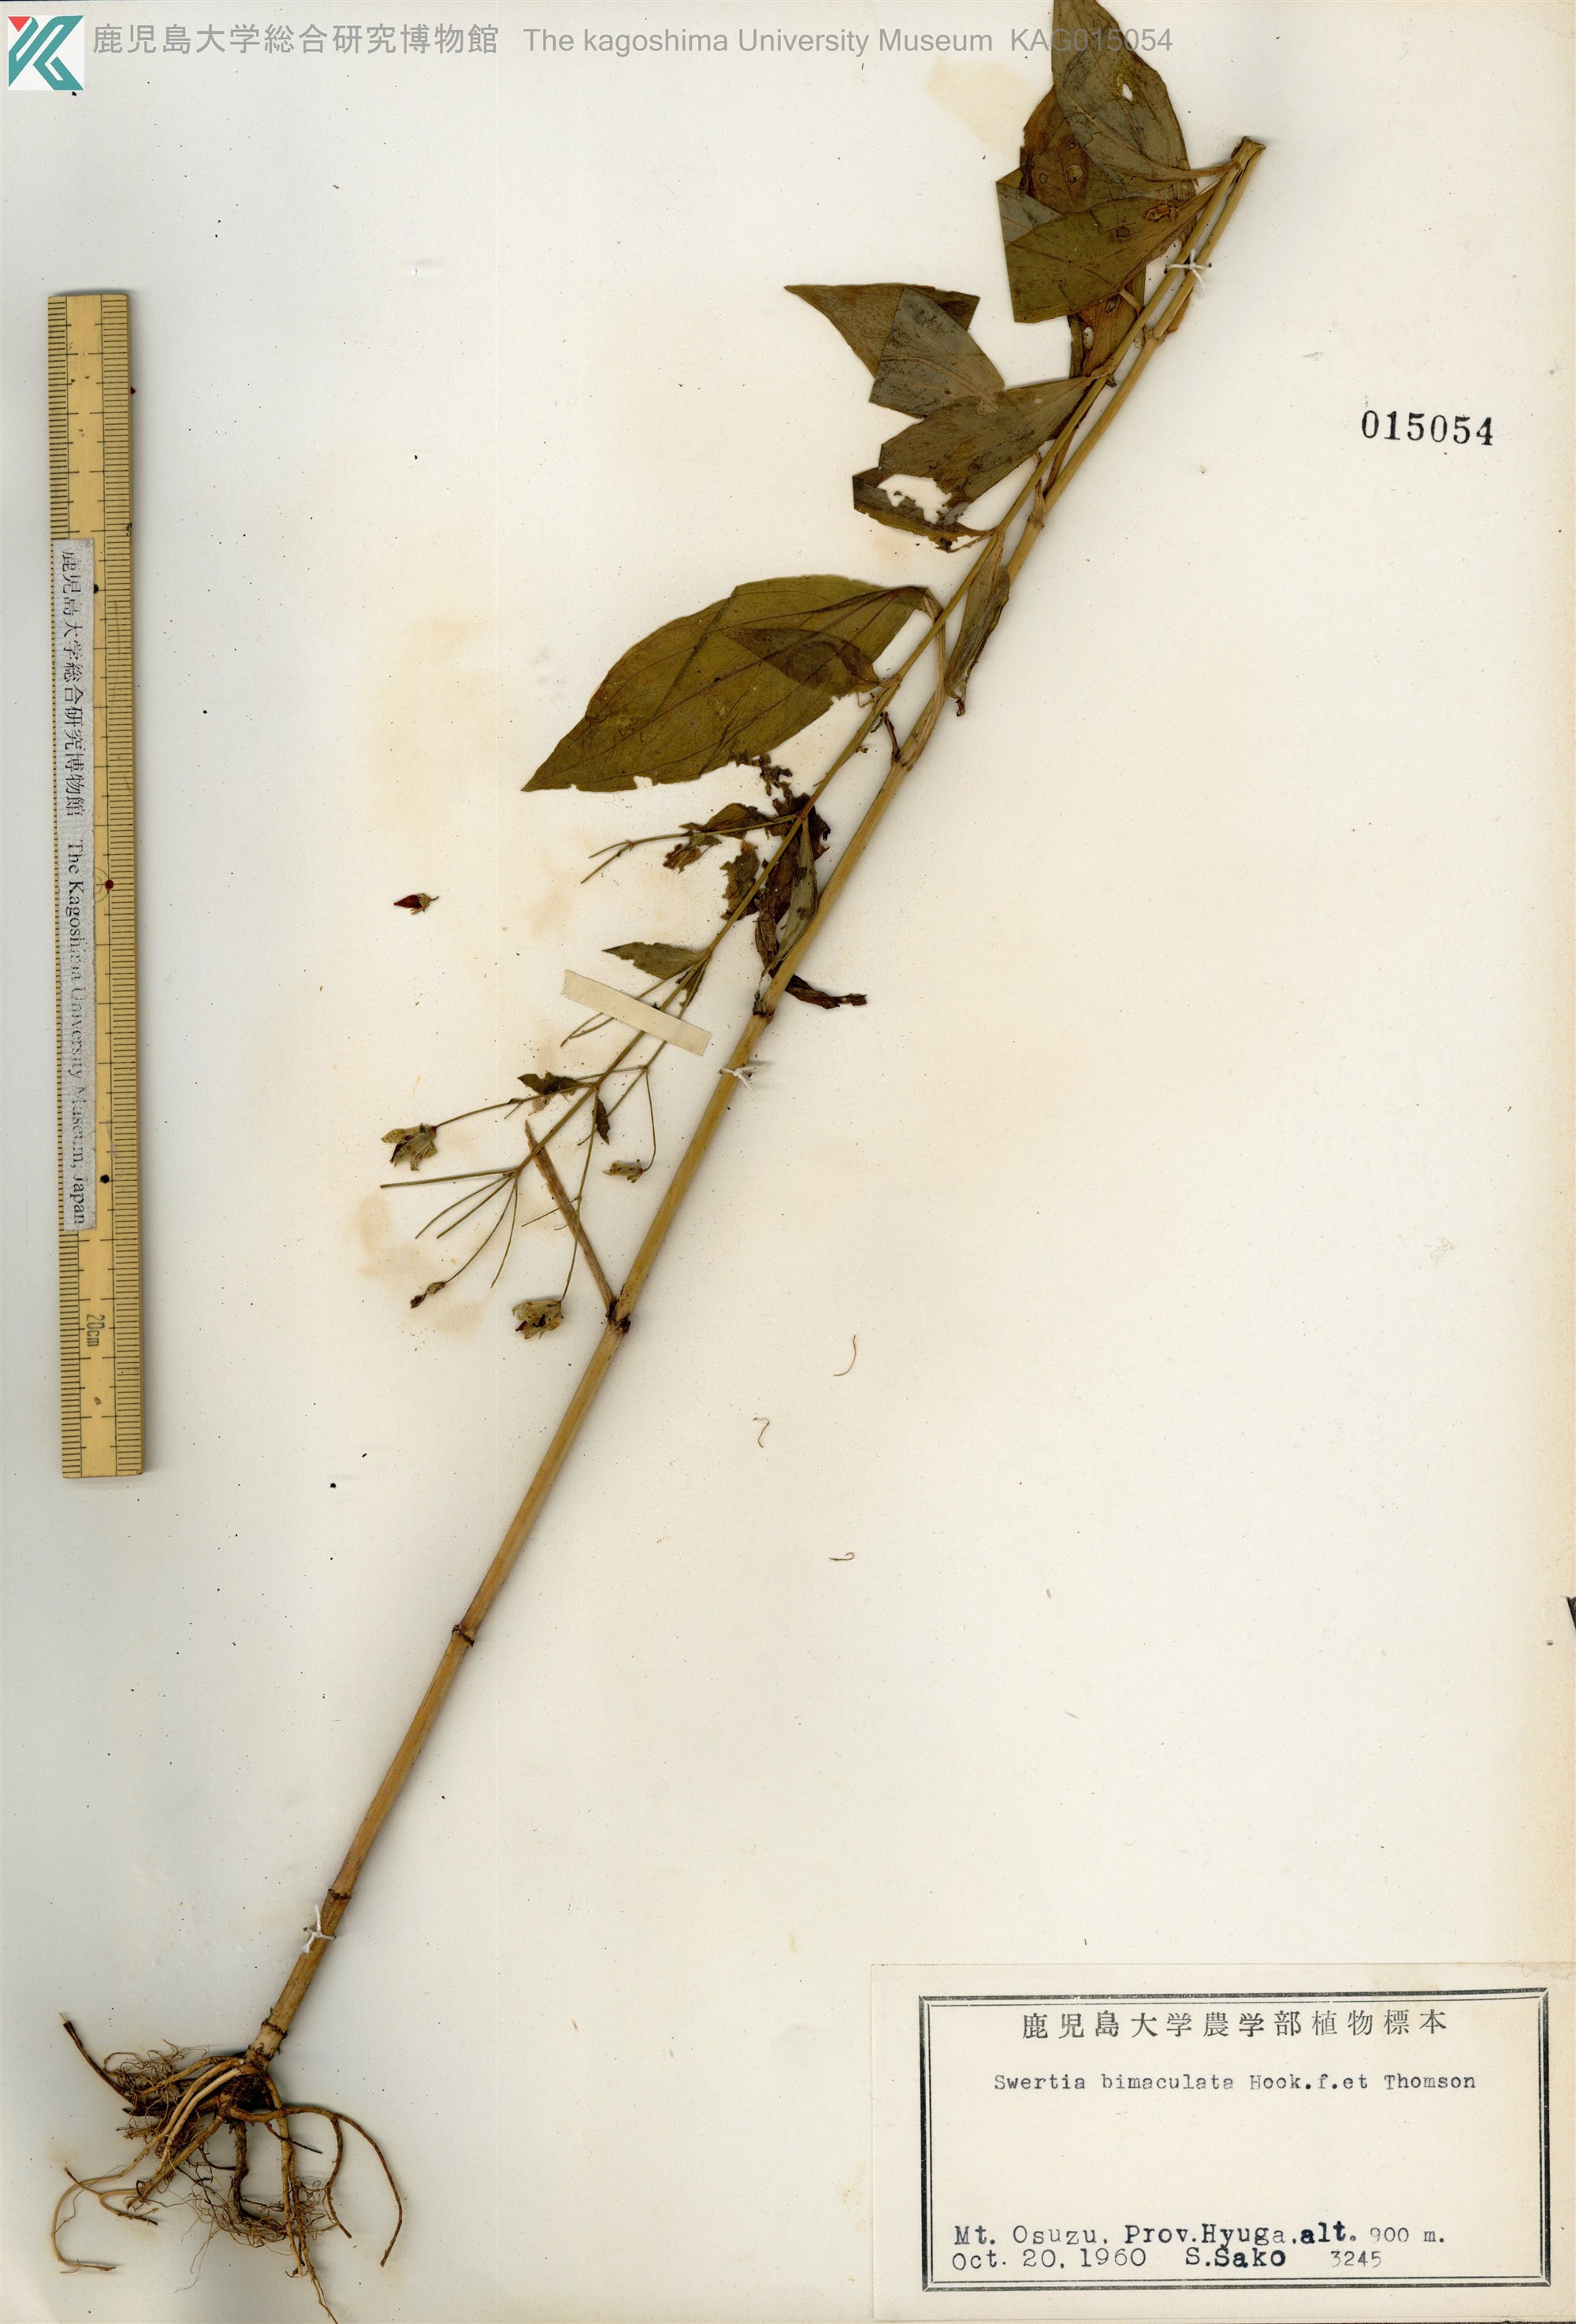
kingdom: Plantae
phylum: Tracheophyta
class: Magnoliopsida
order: Gentianales
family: Gentianaceae
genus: Swertia
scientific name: Swertia bimaculata
